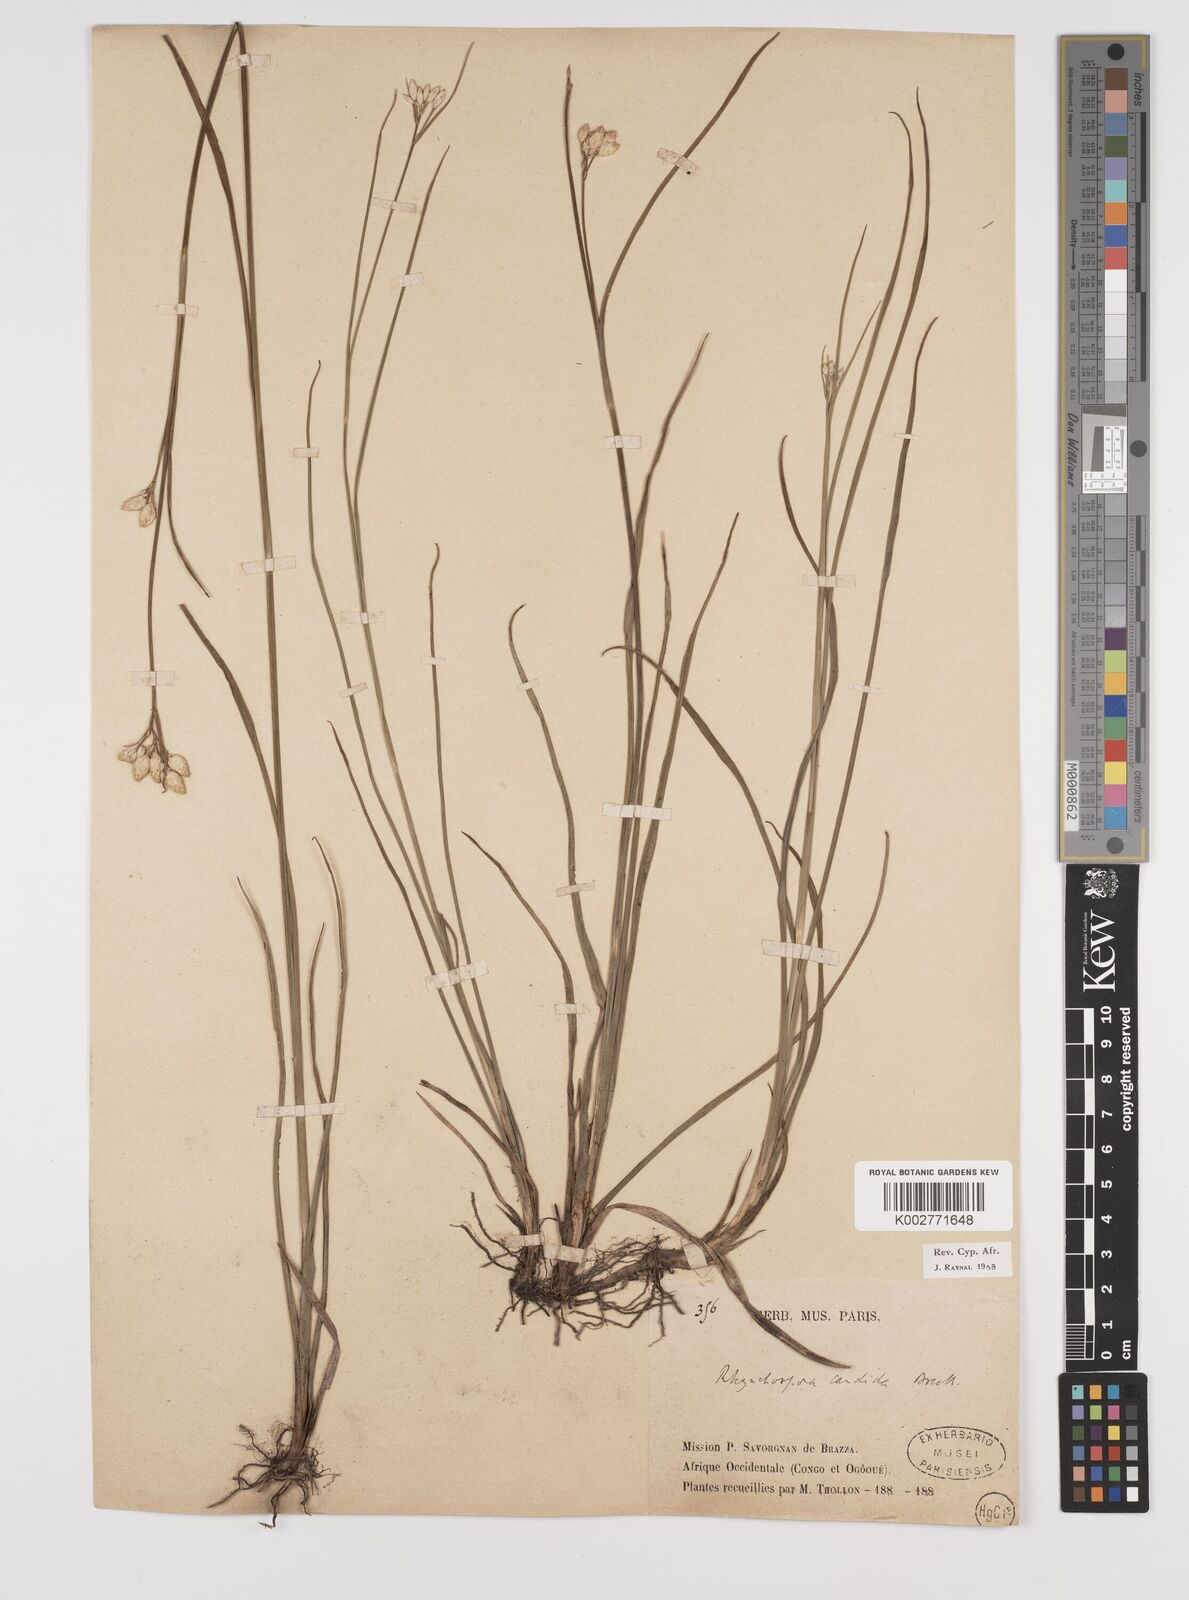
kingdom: Plantae
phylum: Tracheophyta
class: Liliopsida
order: Poales
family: Cyperaceae
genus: Rhynchospora
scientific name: Rhynchospora candida
